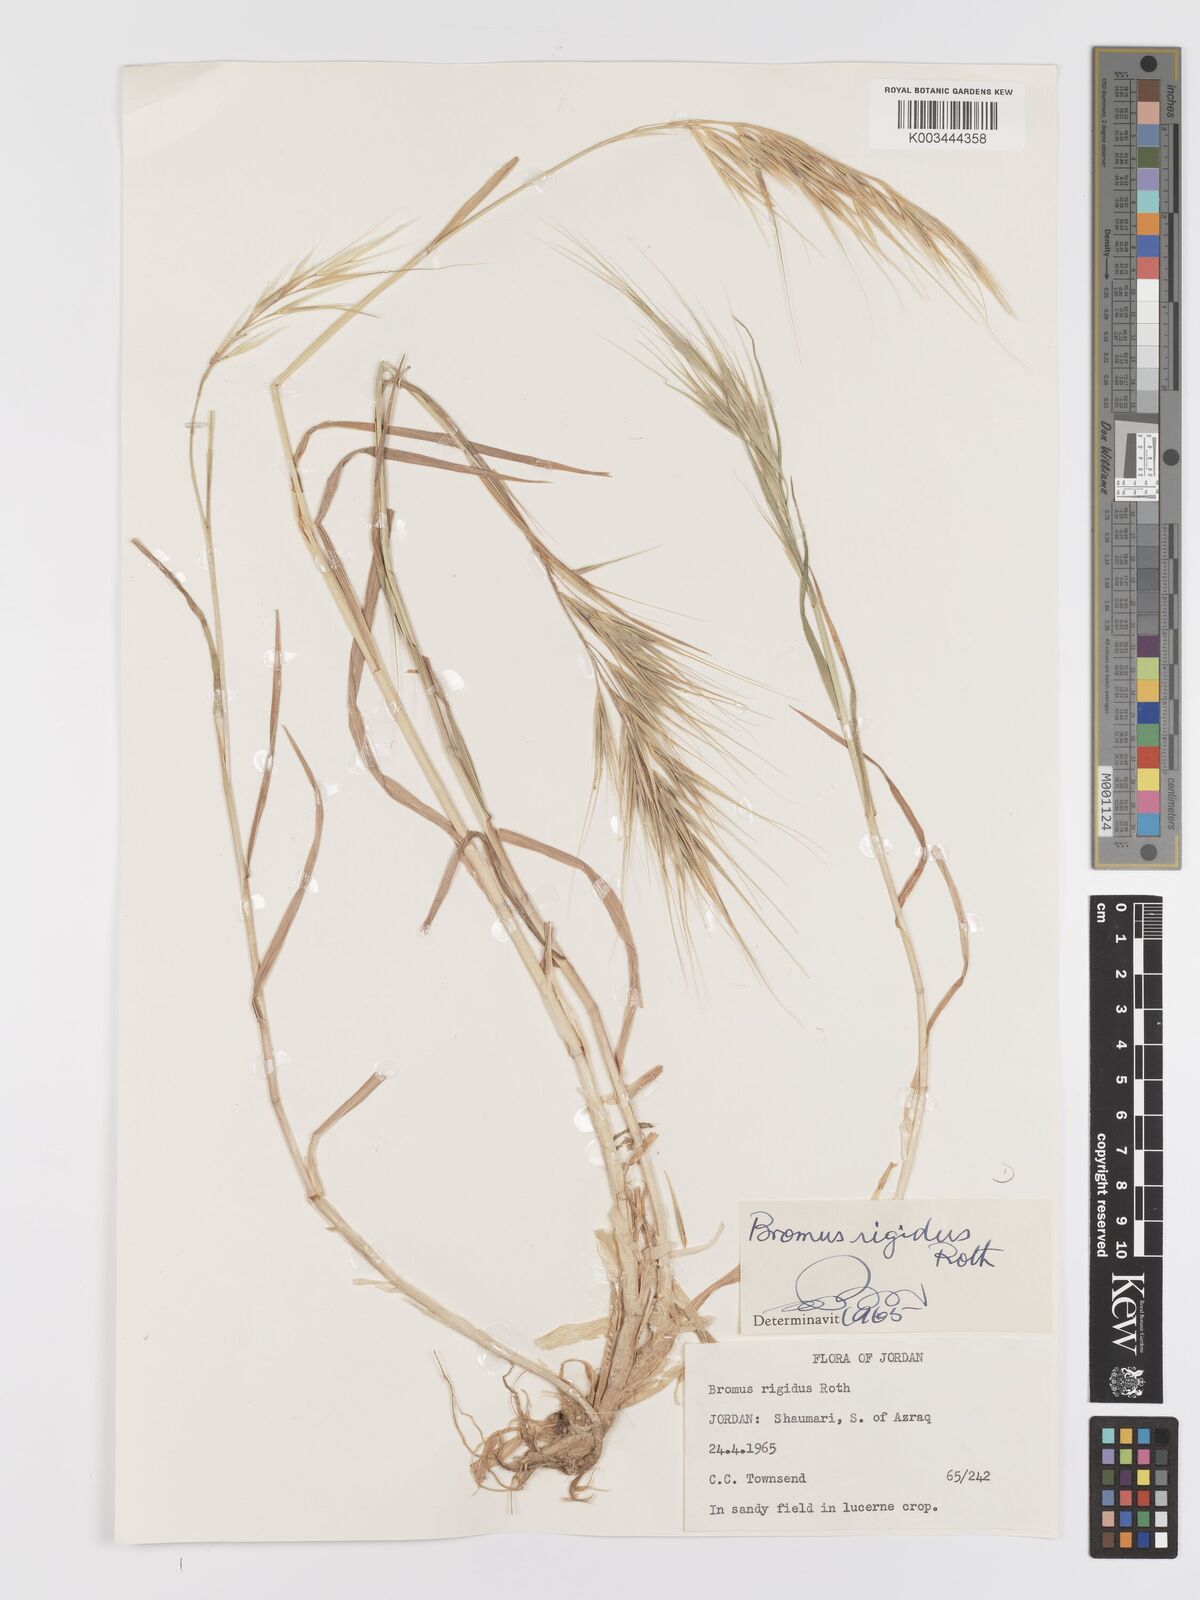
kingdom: Plantae
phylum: Tracheophyta
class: Liliopsida
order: Poales
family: Poaceae
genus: Bromus
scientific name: Bromus diandrus
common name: Ripgut brome
